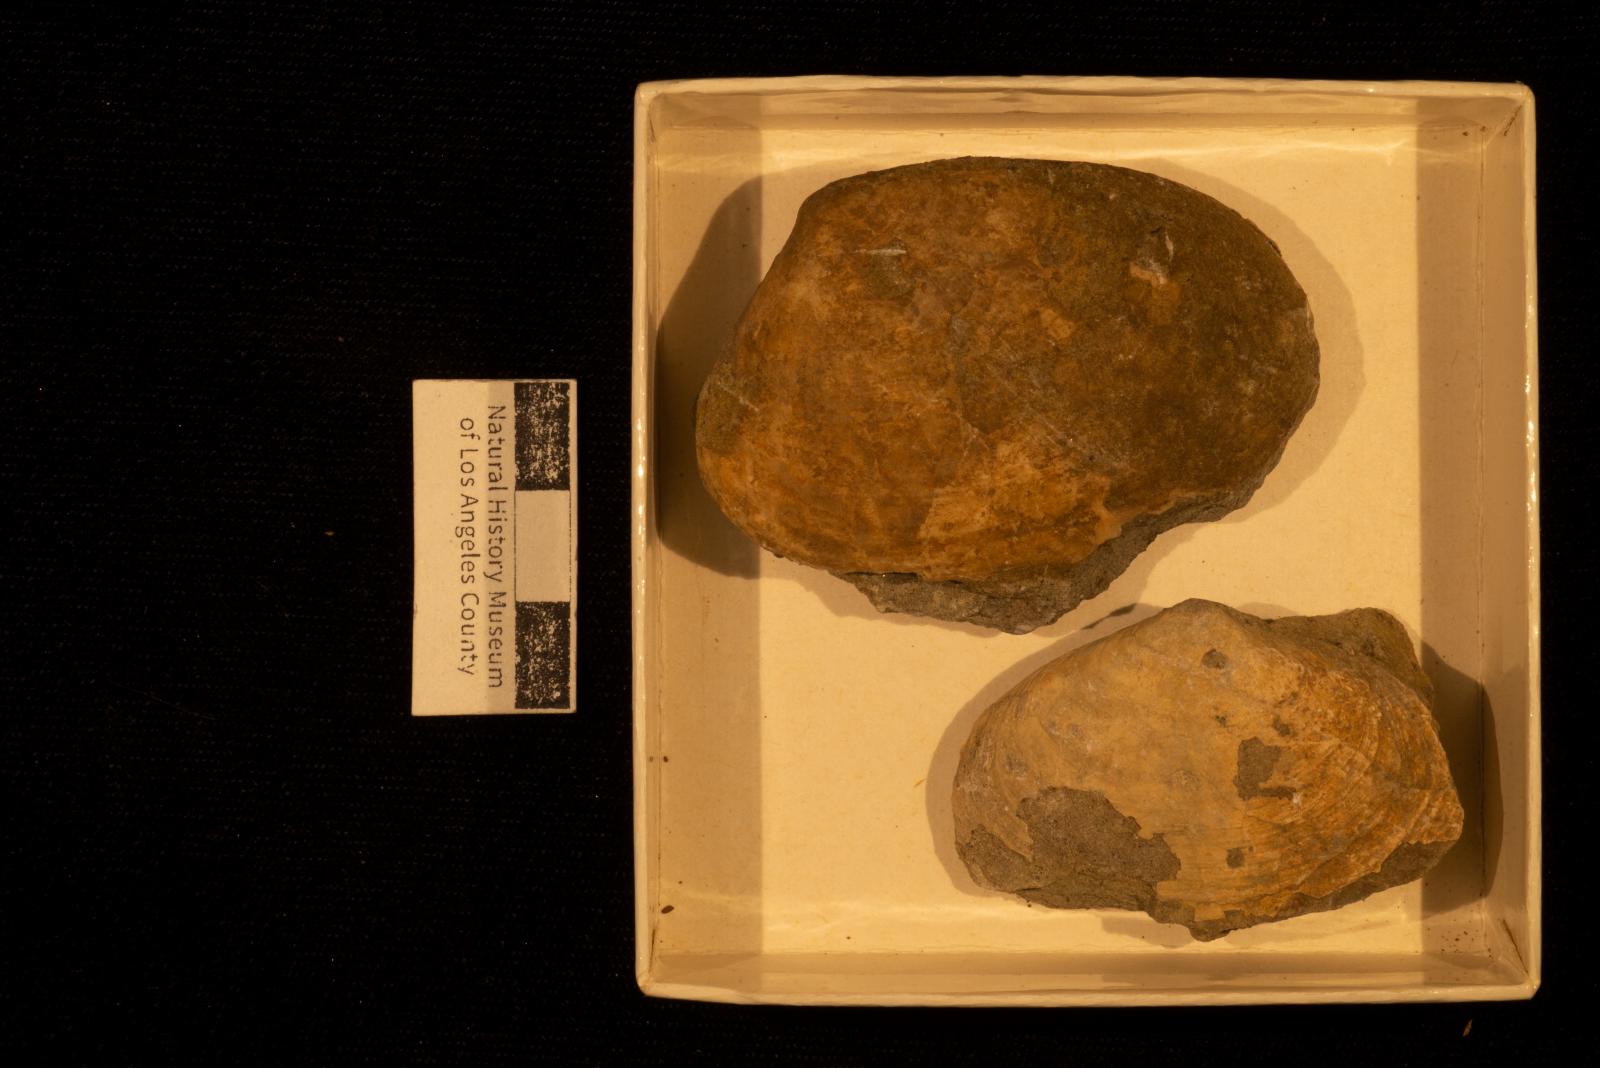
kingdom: Animalia
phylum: Mollusca
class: Bivalvia
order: Venerida
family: Veneridae
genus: Legumen
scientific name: Legumen ooides
